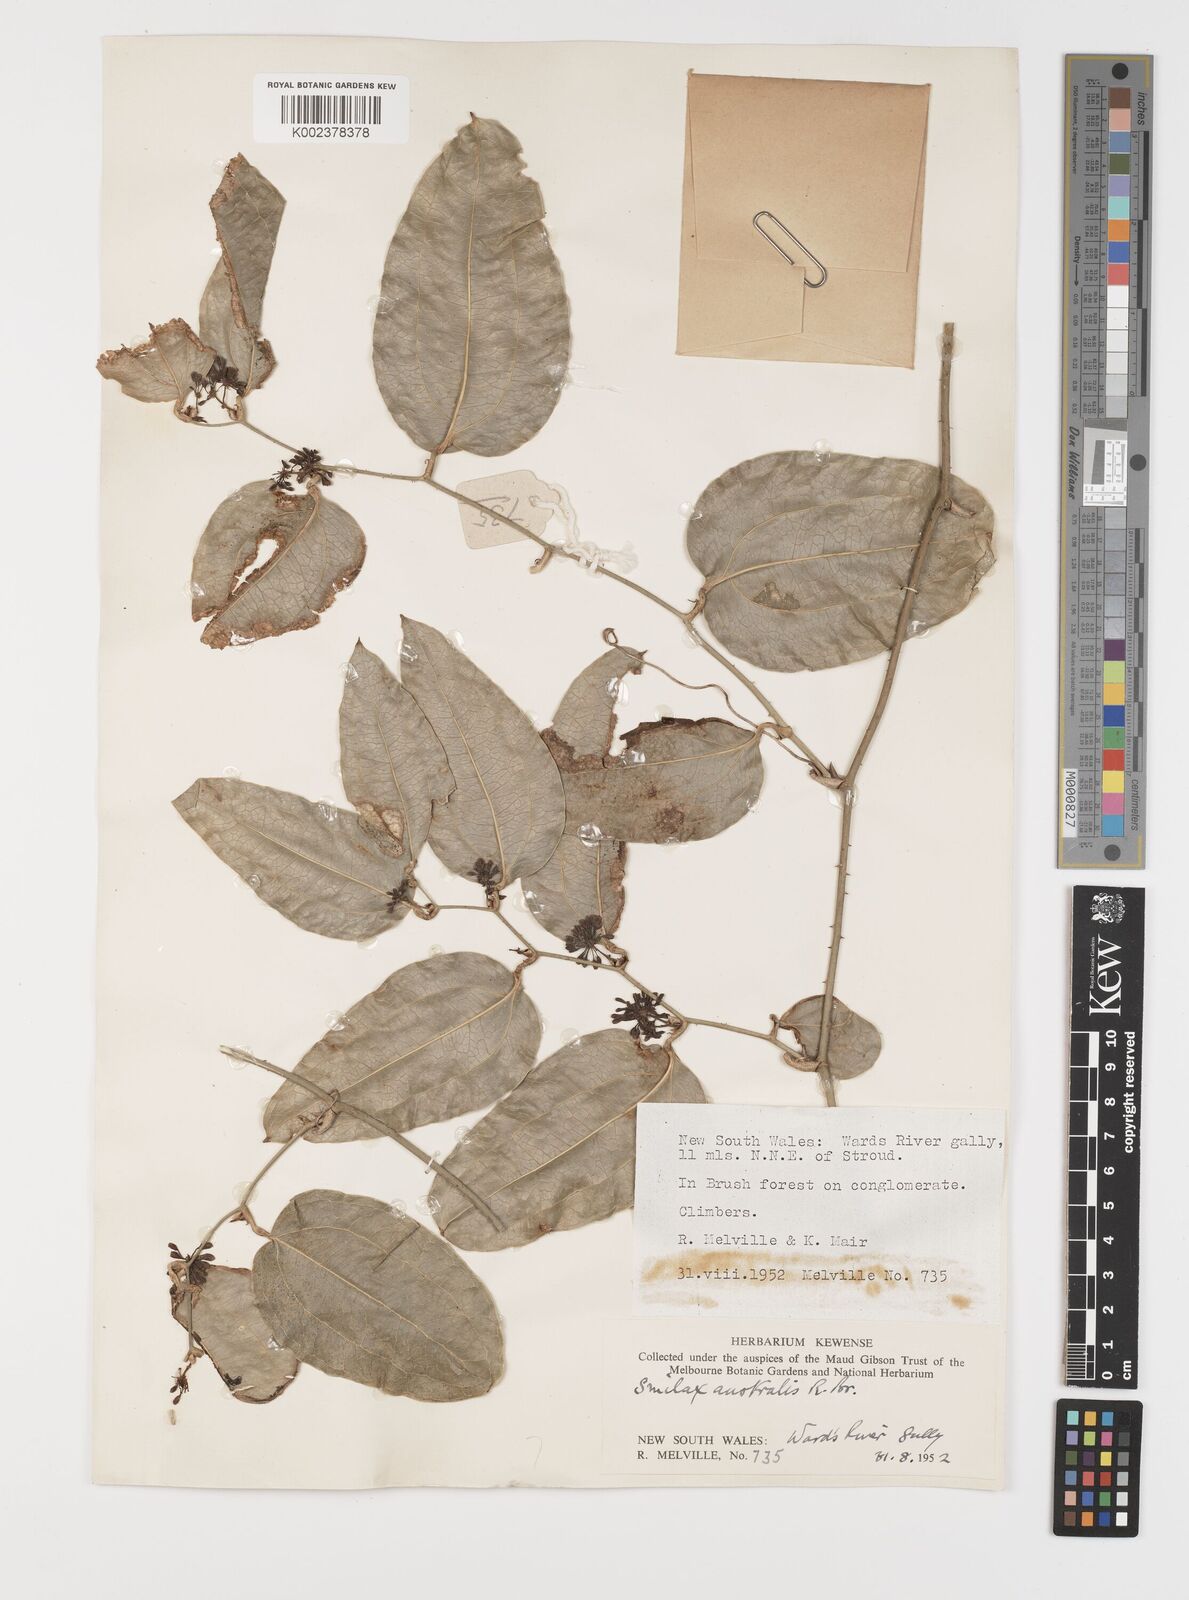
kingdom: Plantae
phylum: Tracheophyta
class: Liliopsida
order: Liliales
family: Smilacaceae
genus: Smilax
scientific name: Smilax australis
